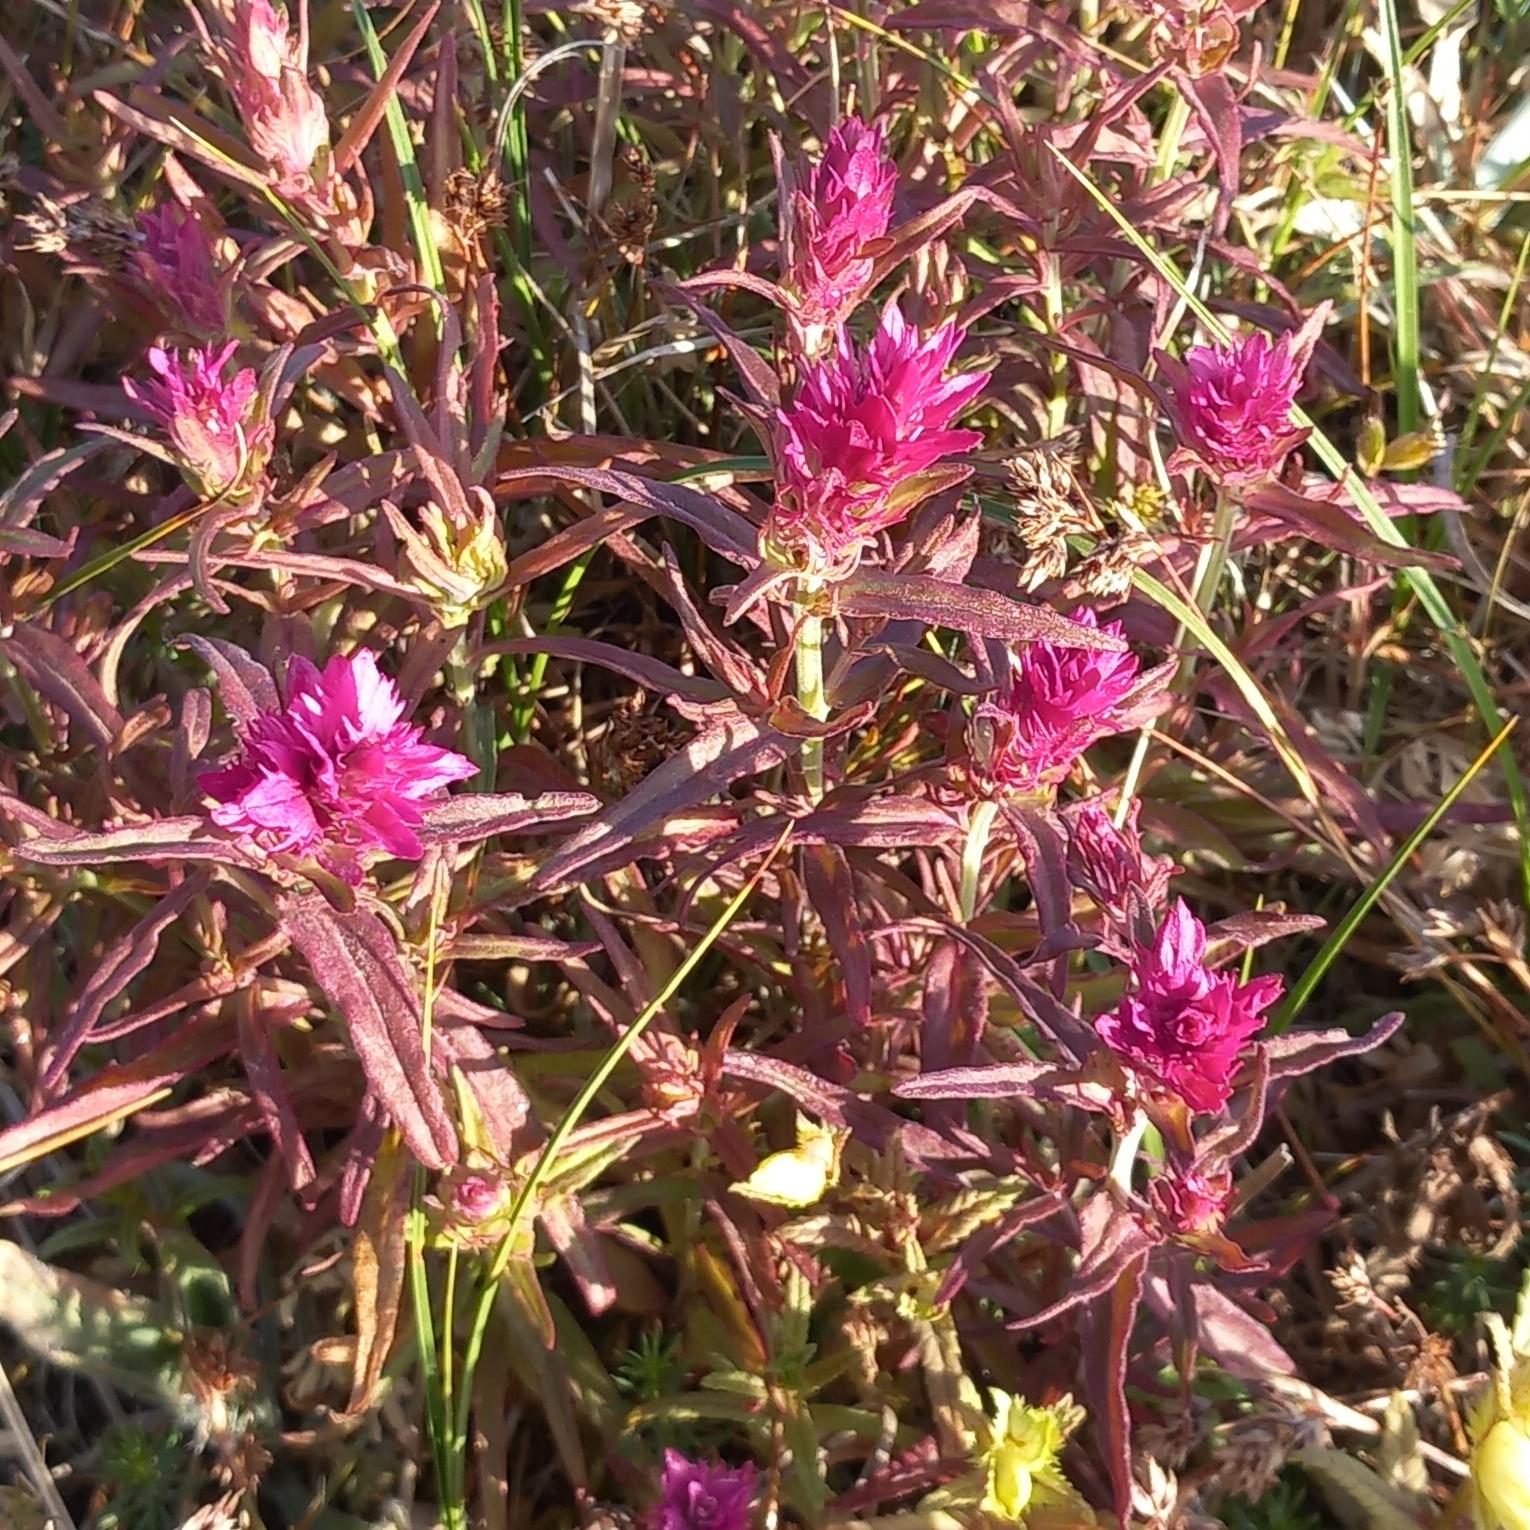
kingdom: Plantae
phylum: Tracheophyta
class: Magnoliopsida
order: Lamiales
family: Orobanchaceae
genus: Melampyrum
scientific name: Melampyrum arvense
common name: Ager-kohvede
